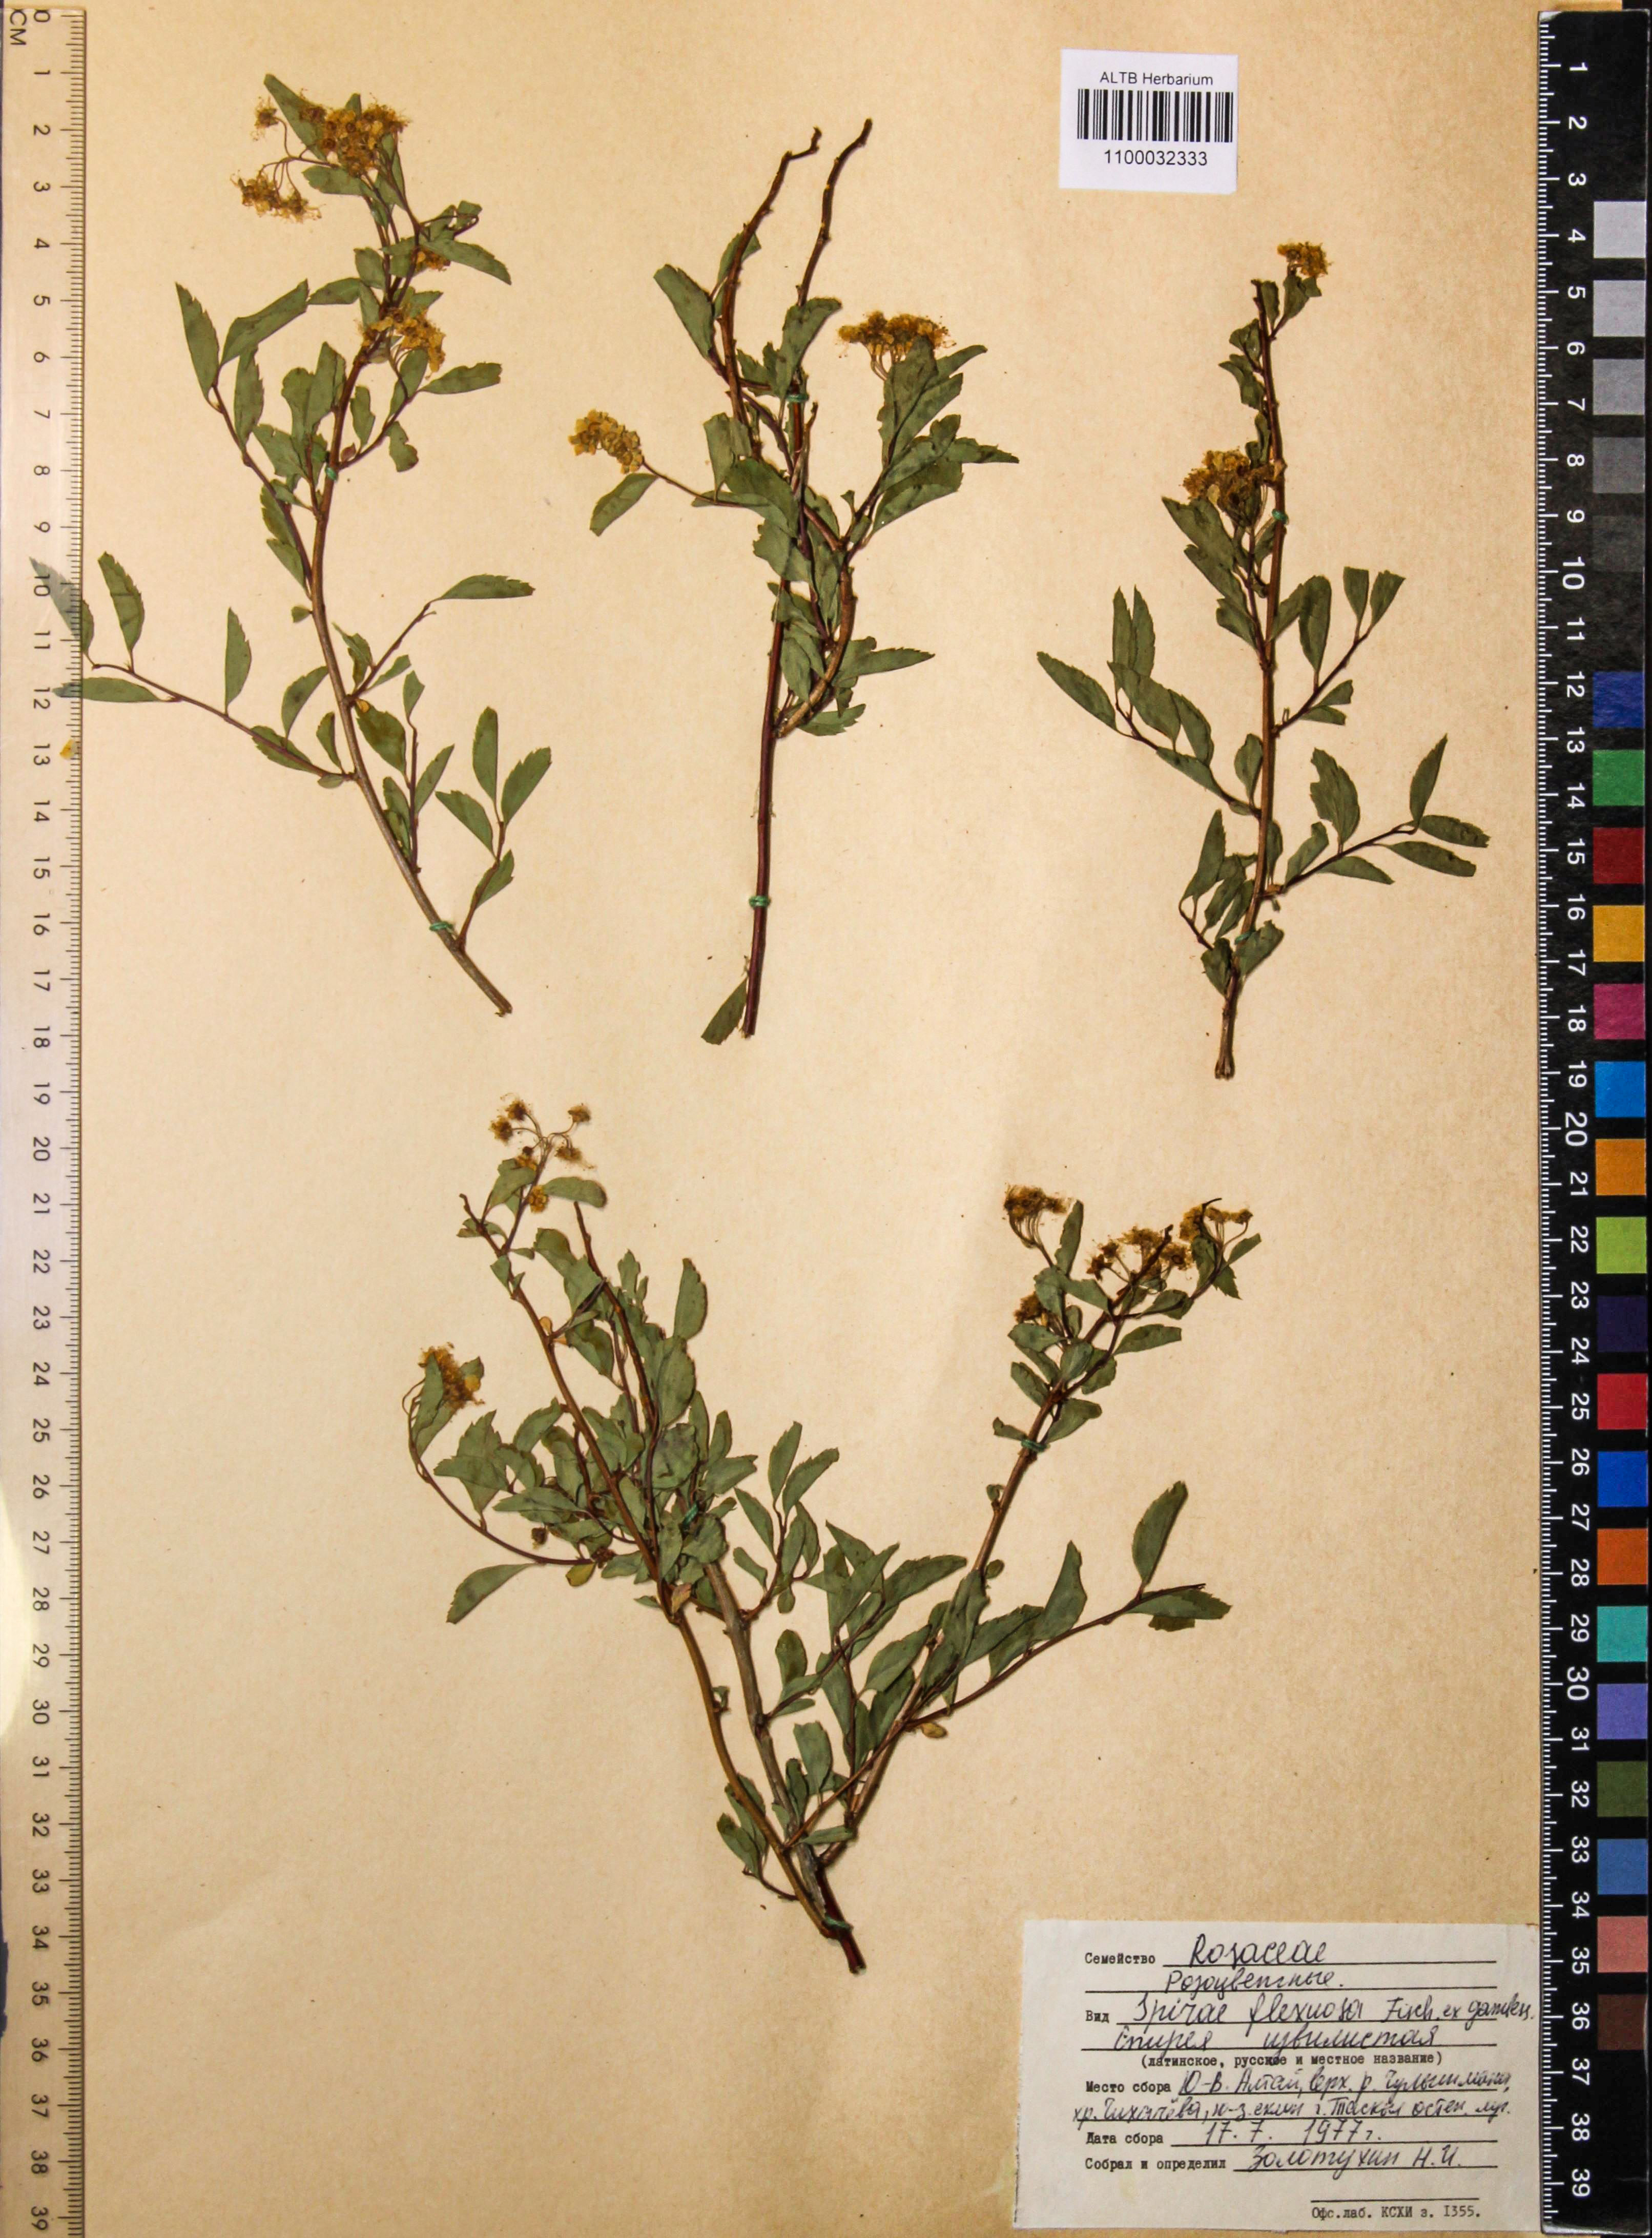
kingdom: Plantae
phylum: Tracheophyta
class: Magnoliopsida
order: Rosales
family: Rosaceae
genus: Spiraea
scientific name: Spiraea flexuosa
